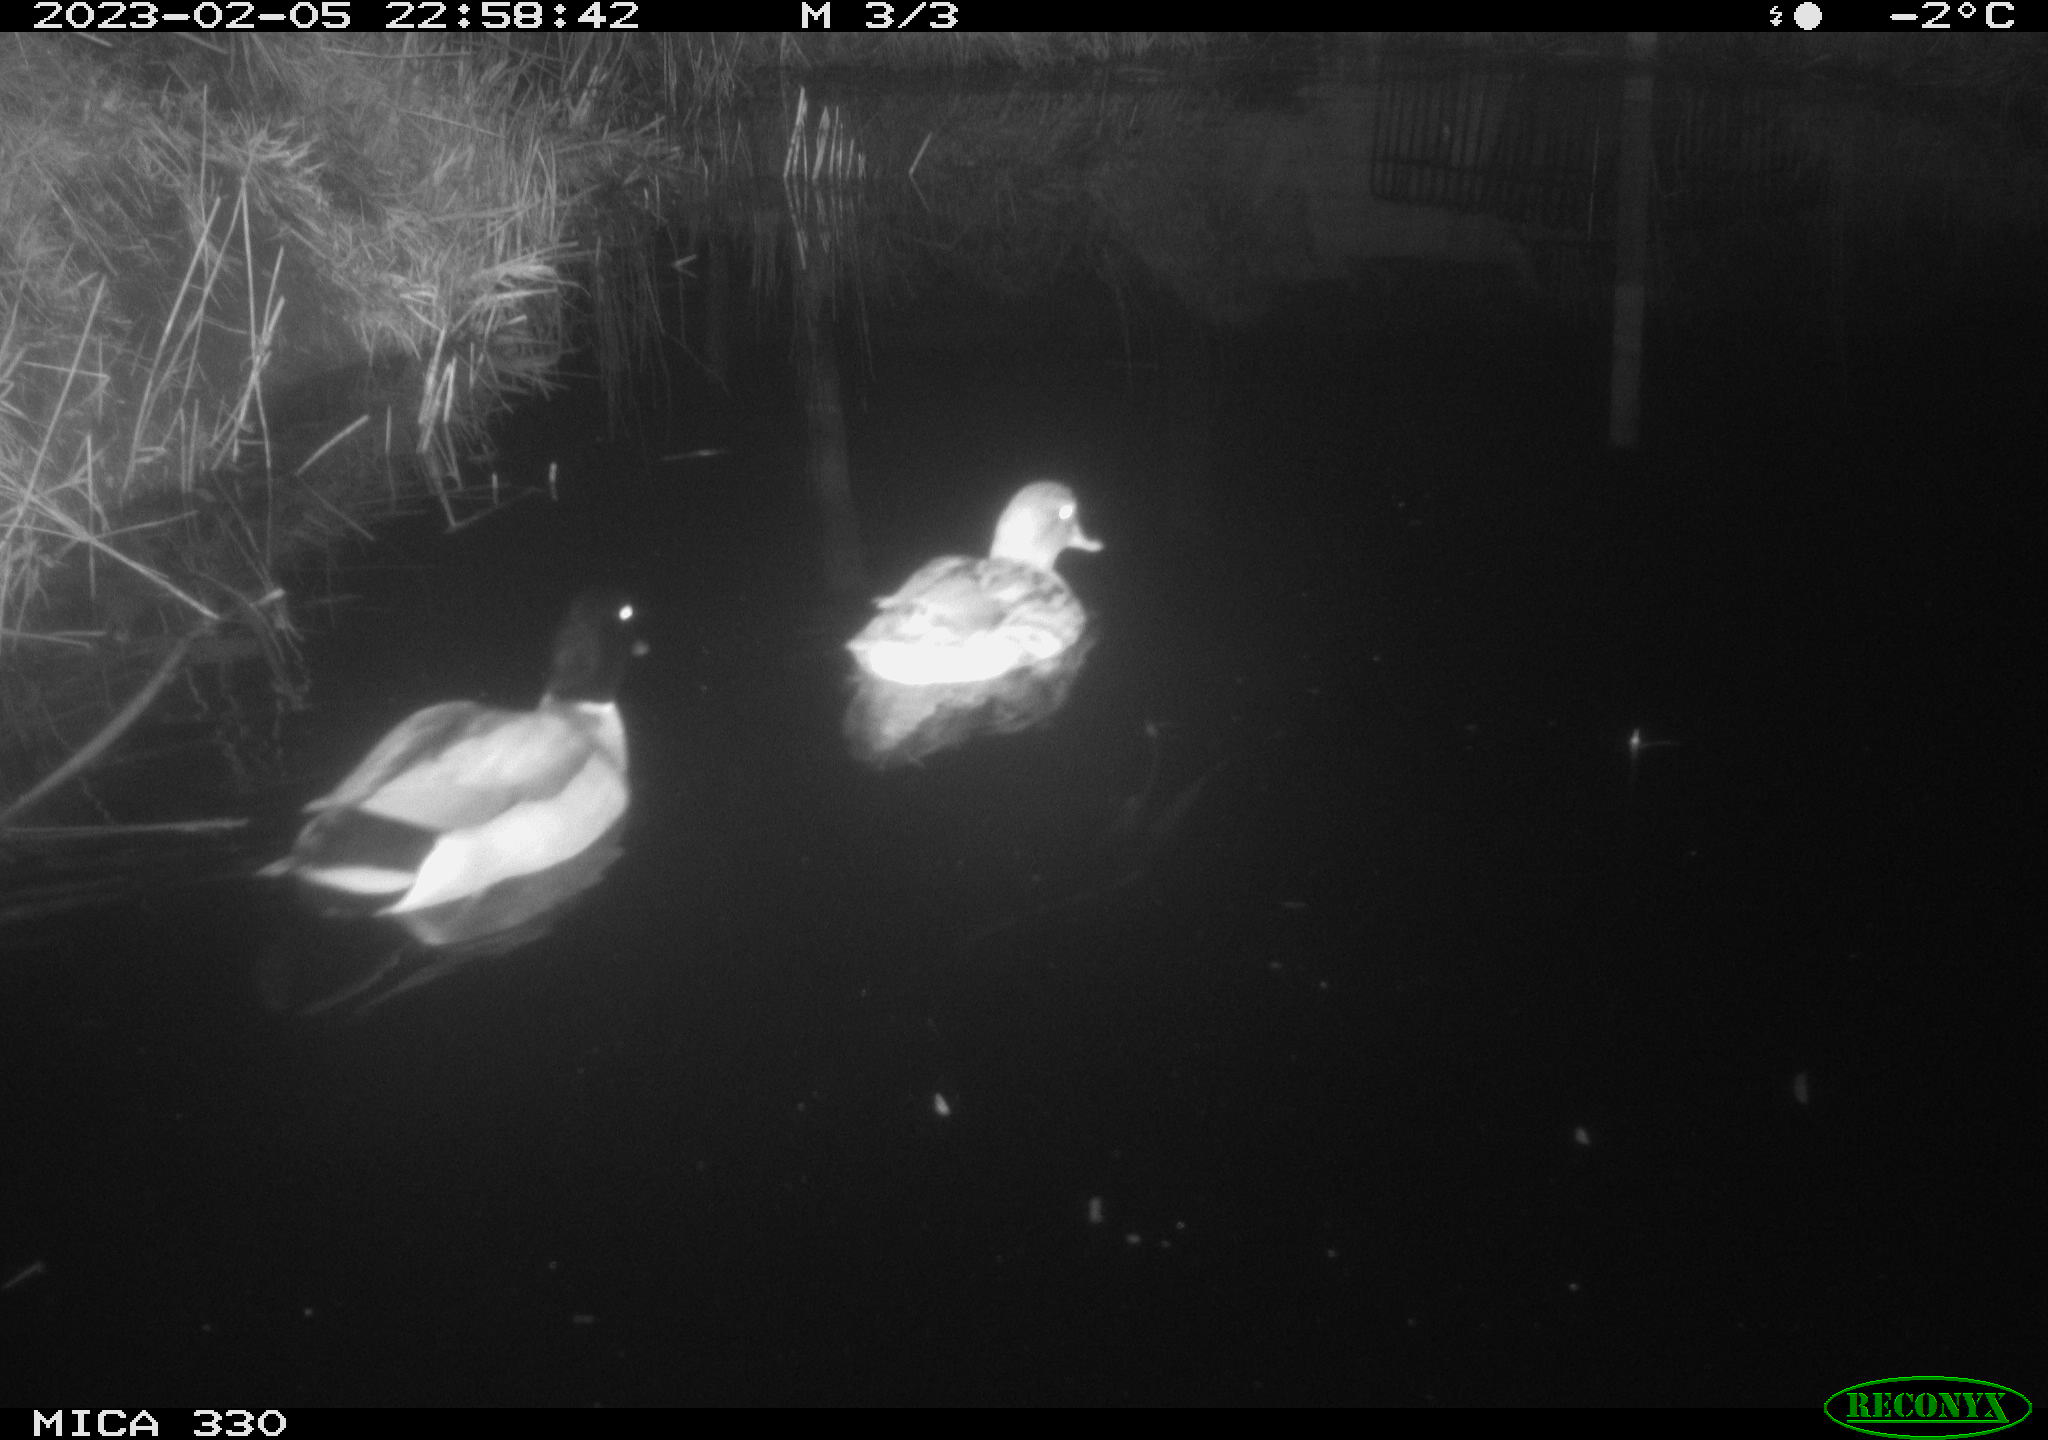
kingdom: Animalia
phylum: Chordata
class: Aves
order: Anseriformes
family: Anatidae
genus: Anas
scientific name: Anas
